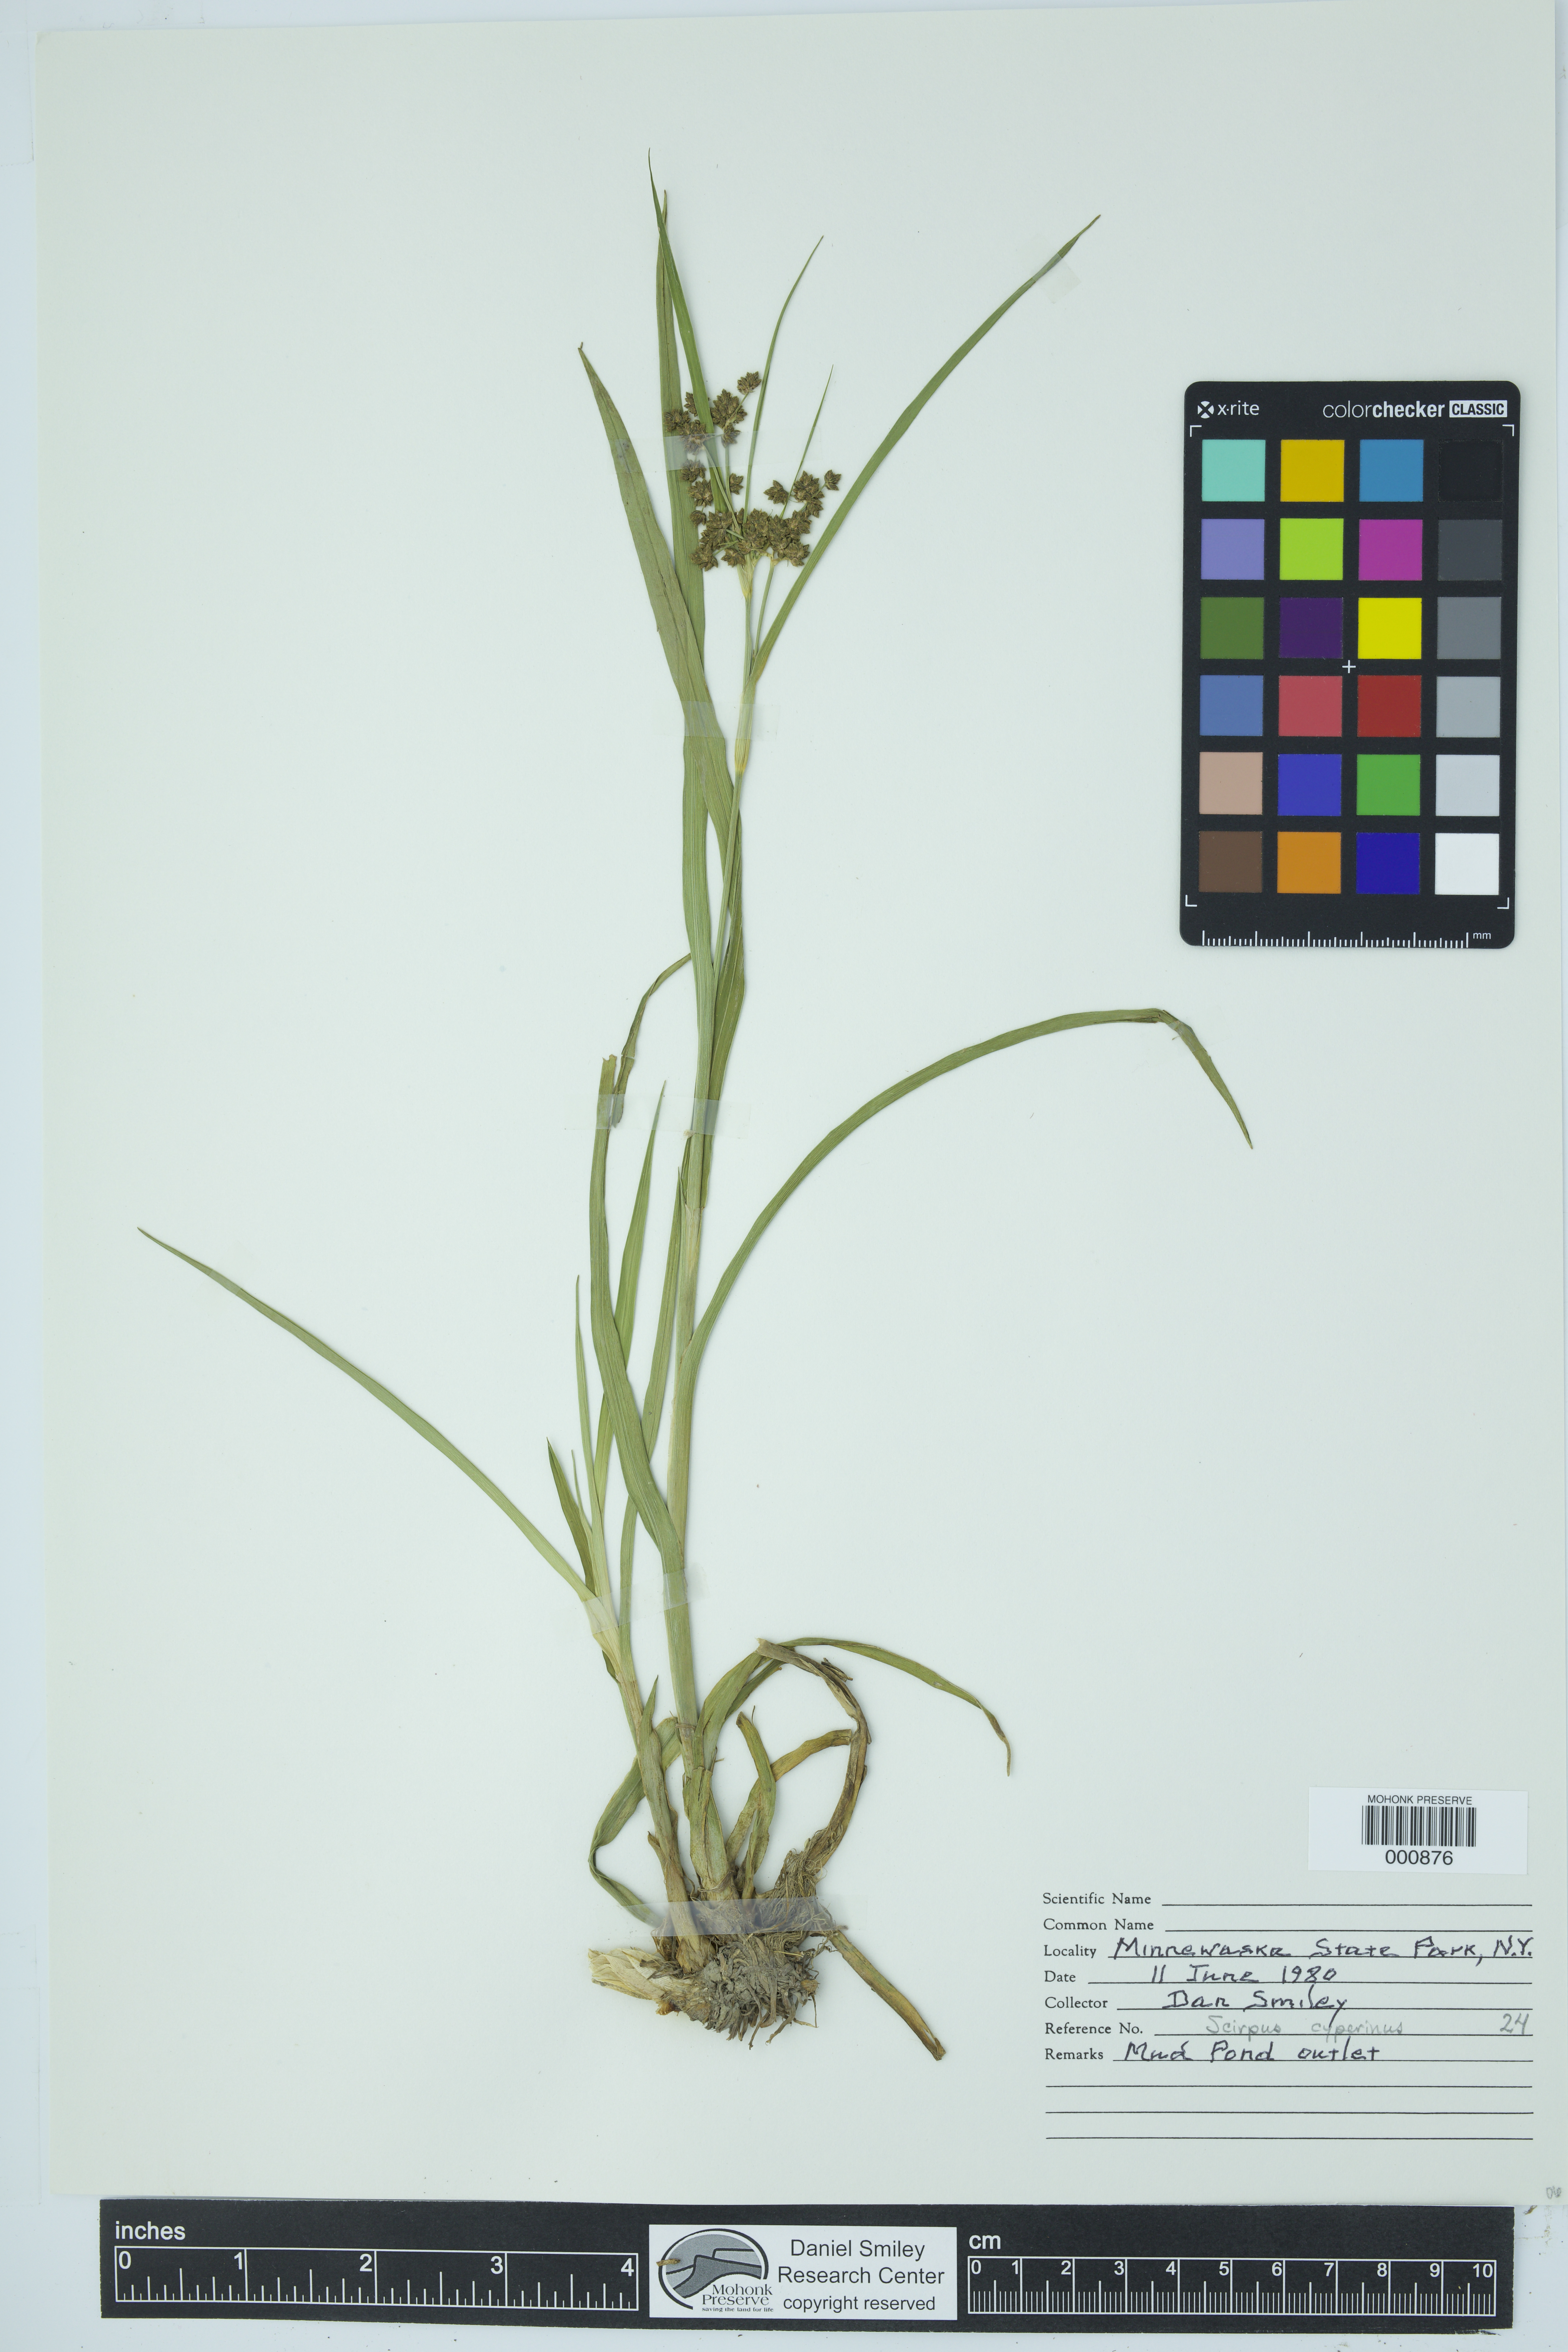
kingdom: Plantae
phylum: Tracheophyta
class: Liliopsida
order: Poales
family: Cyperaceae
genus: Scirpus
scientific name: Scirpus cyperinus
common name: Black-sheathed bulrush
